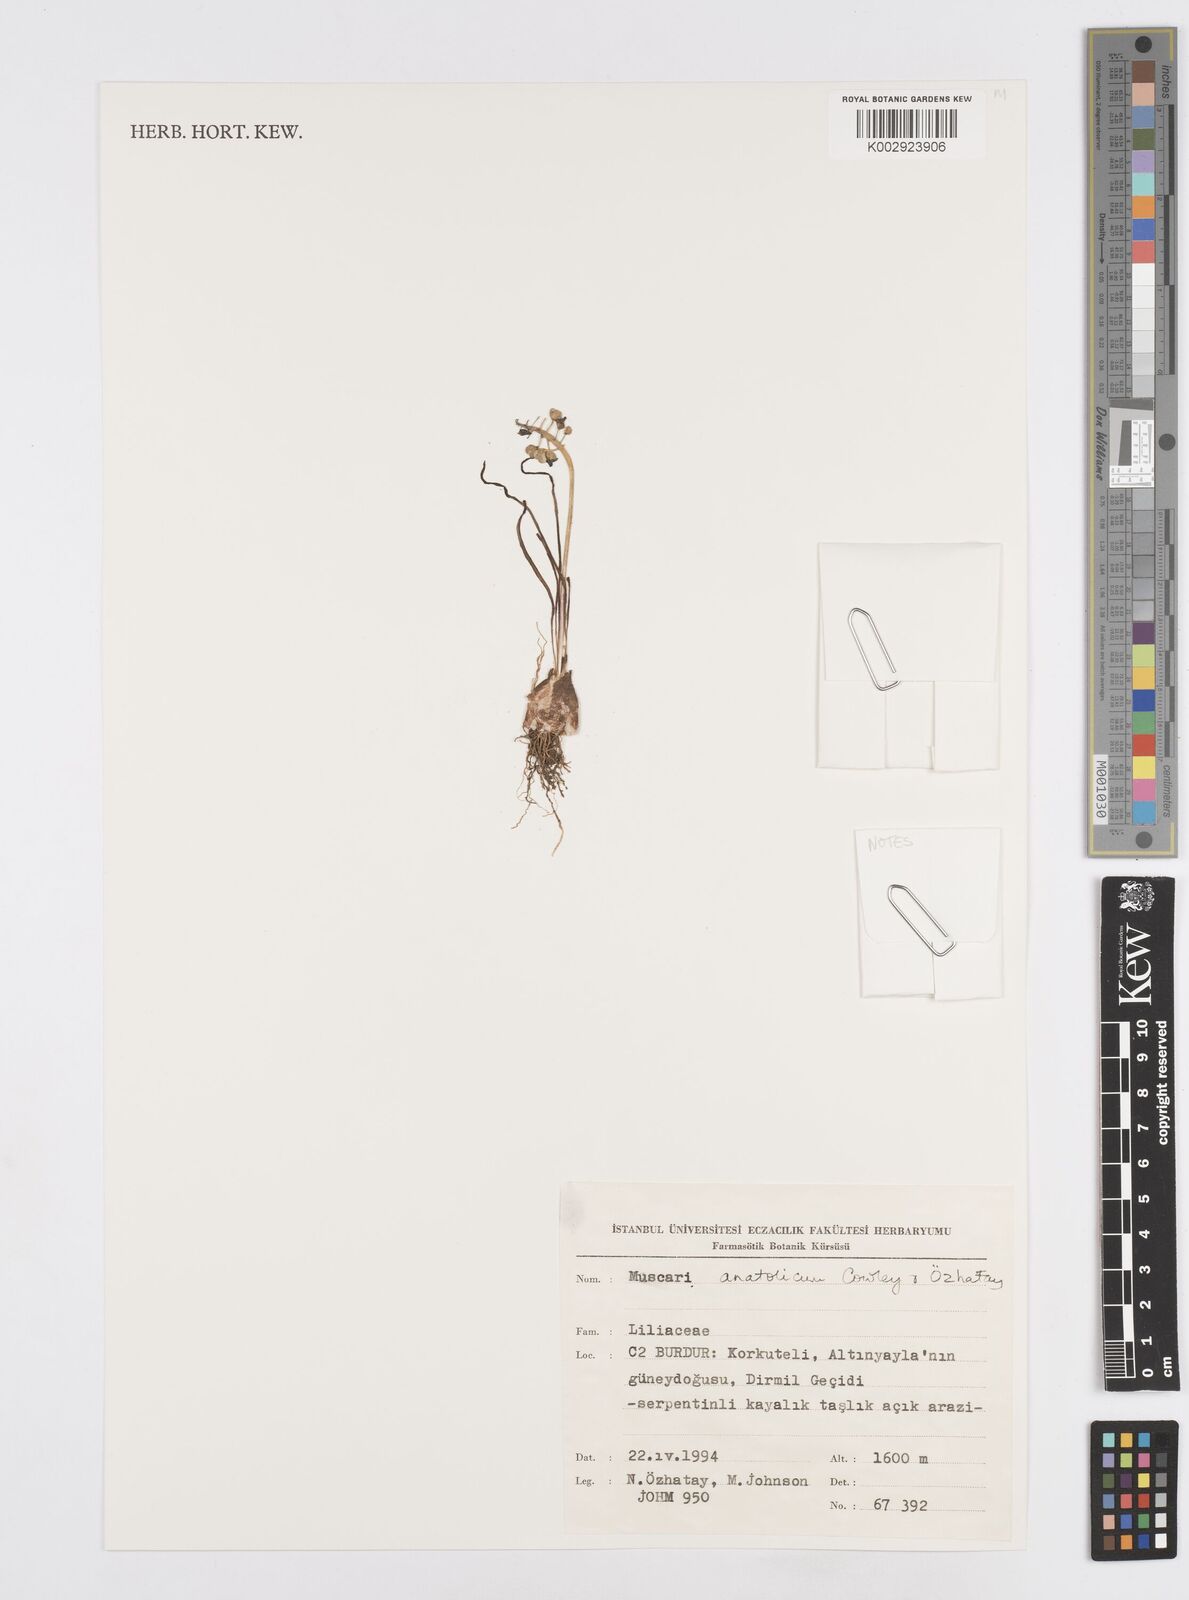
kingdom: Plantae
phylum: Tracheophyta
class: Liliopsida
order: Asparagales
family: Asparagaceae
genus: Muscari
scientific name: Muscari anatolicum
